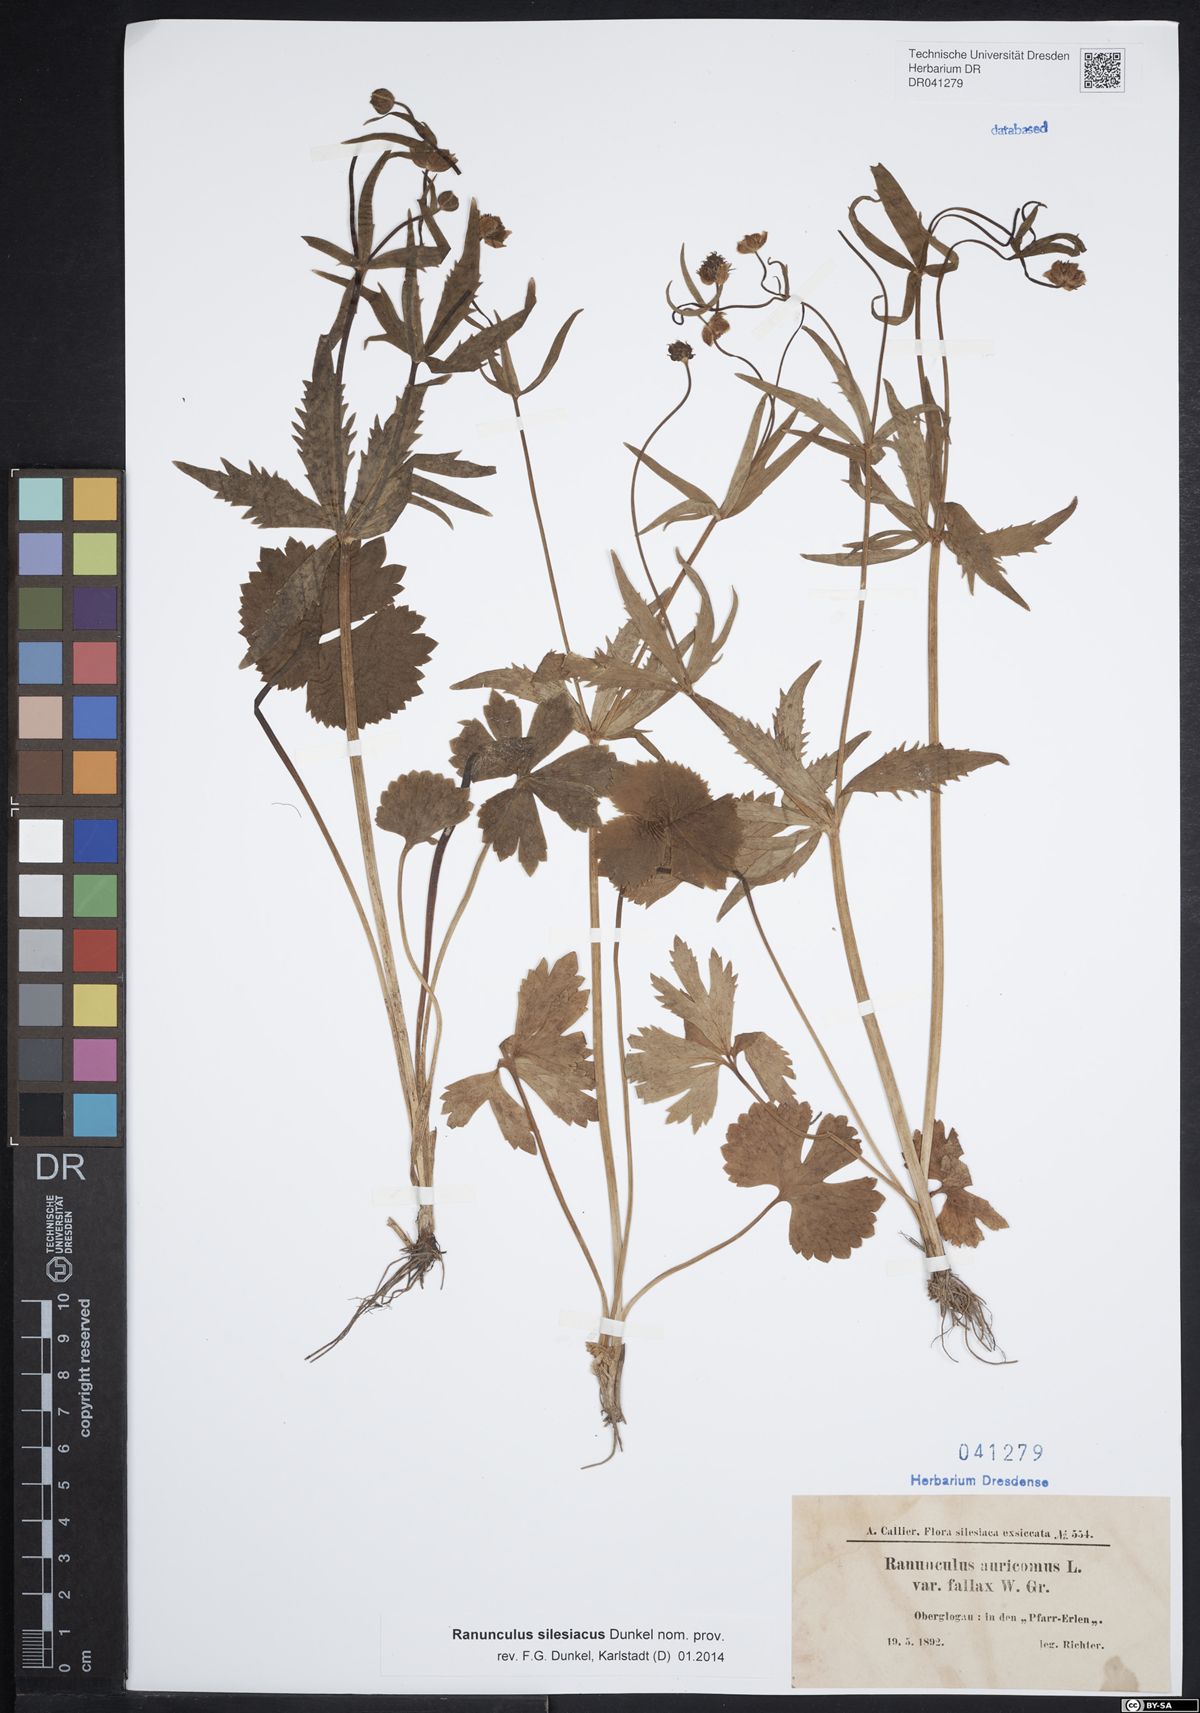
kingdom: Plantae
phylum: Tracheophyta
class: Magnoliopsida
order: Ranunculales
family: Ranunculaceae
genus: Ranunculus
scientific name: Ranunculus auricomus
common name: Goldilocks buttercup
